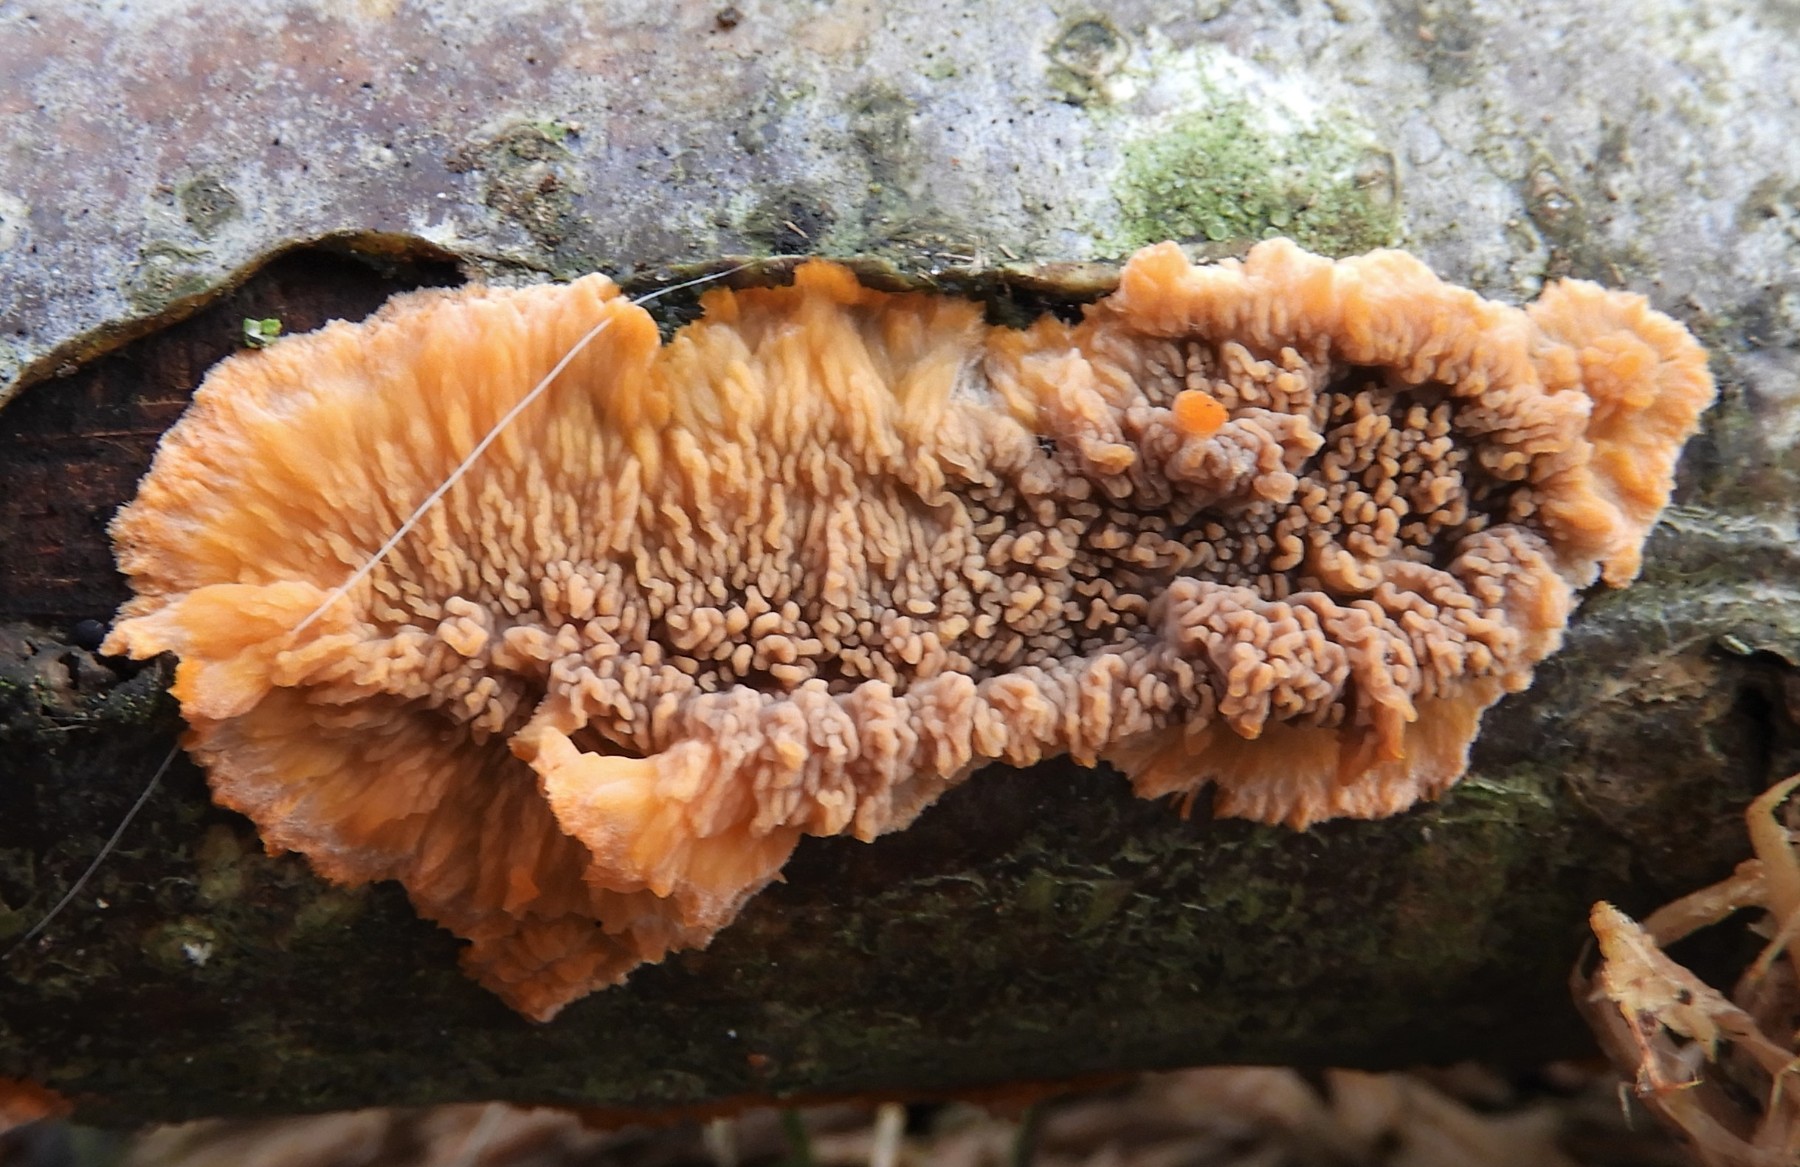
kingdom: Fungi
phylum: Basidiomycota
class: Agaricomycetes
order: Polyporales
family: Meruliaceae
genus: Phlebia
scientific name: Phlebia radiata
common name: stråle-åresvamp
